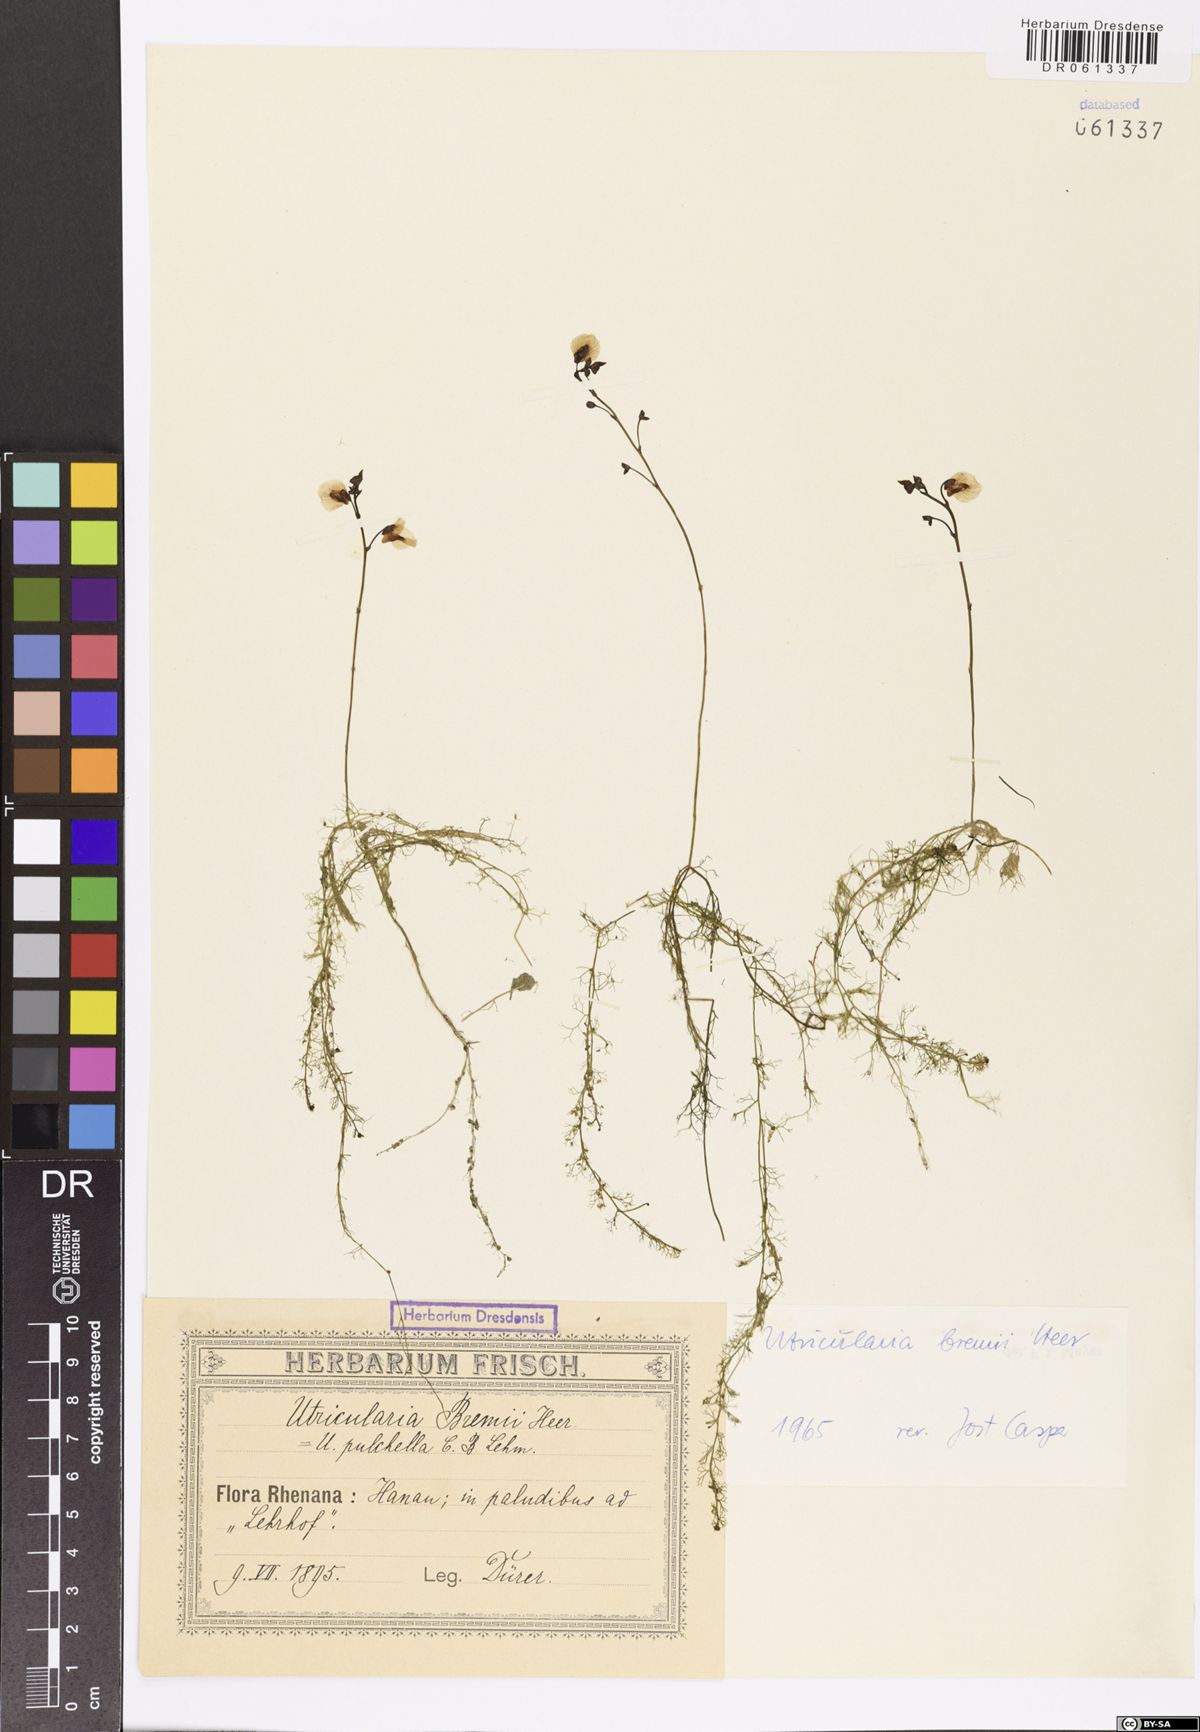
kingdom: Plantae
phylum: Tracheophyta
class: Magnoliopsida
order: Lamiales
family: Lentibulariaceae
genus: Utricularia
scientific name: Utricularia bremii
